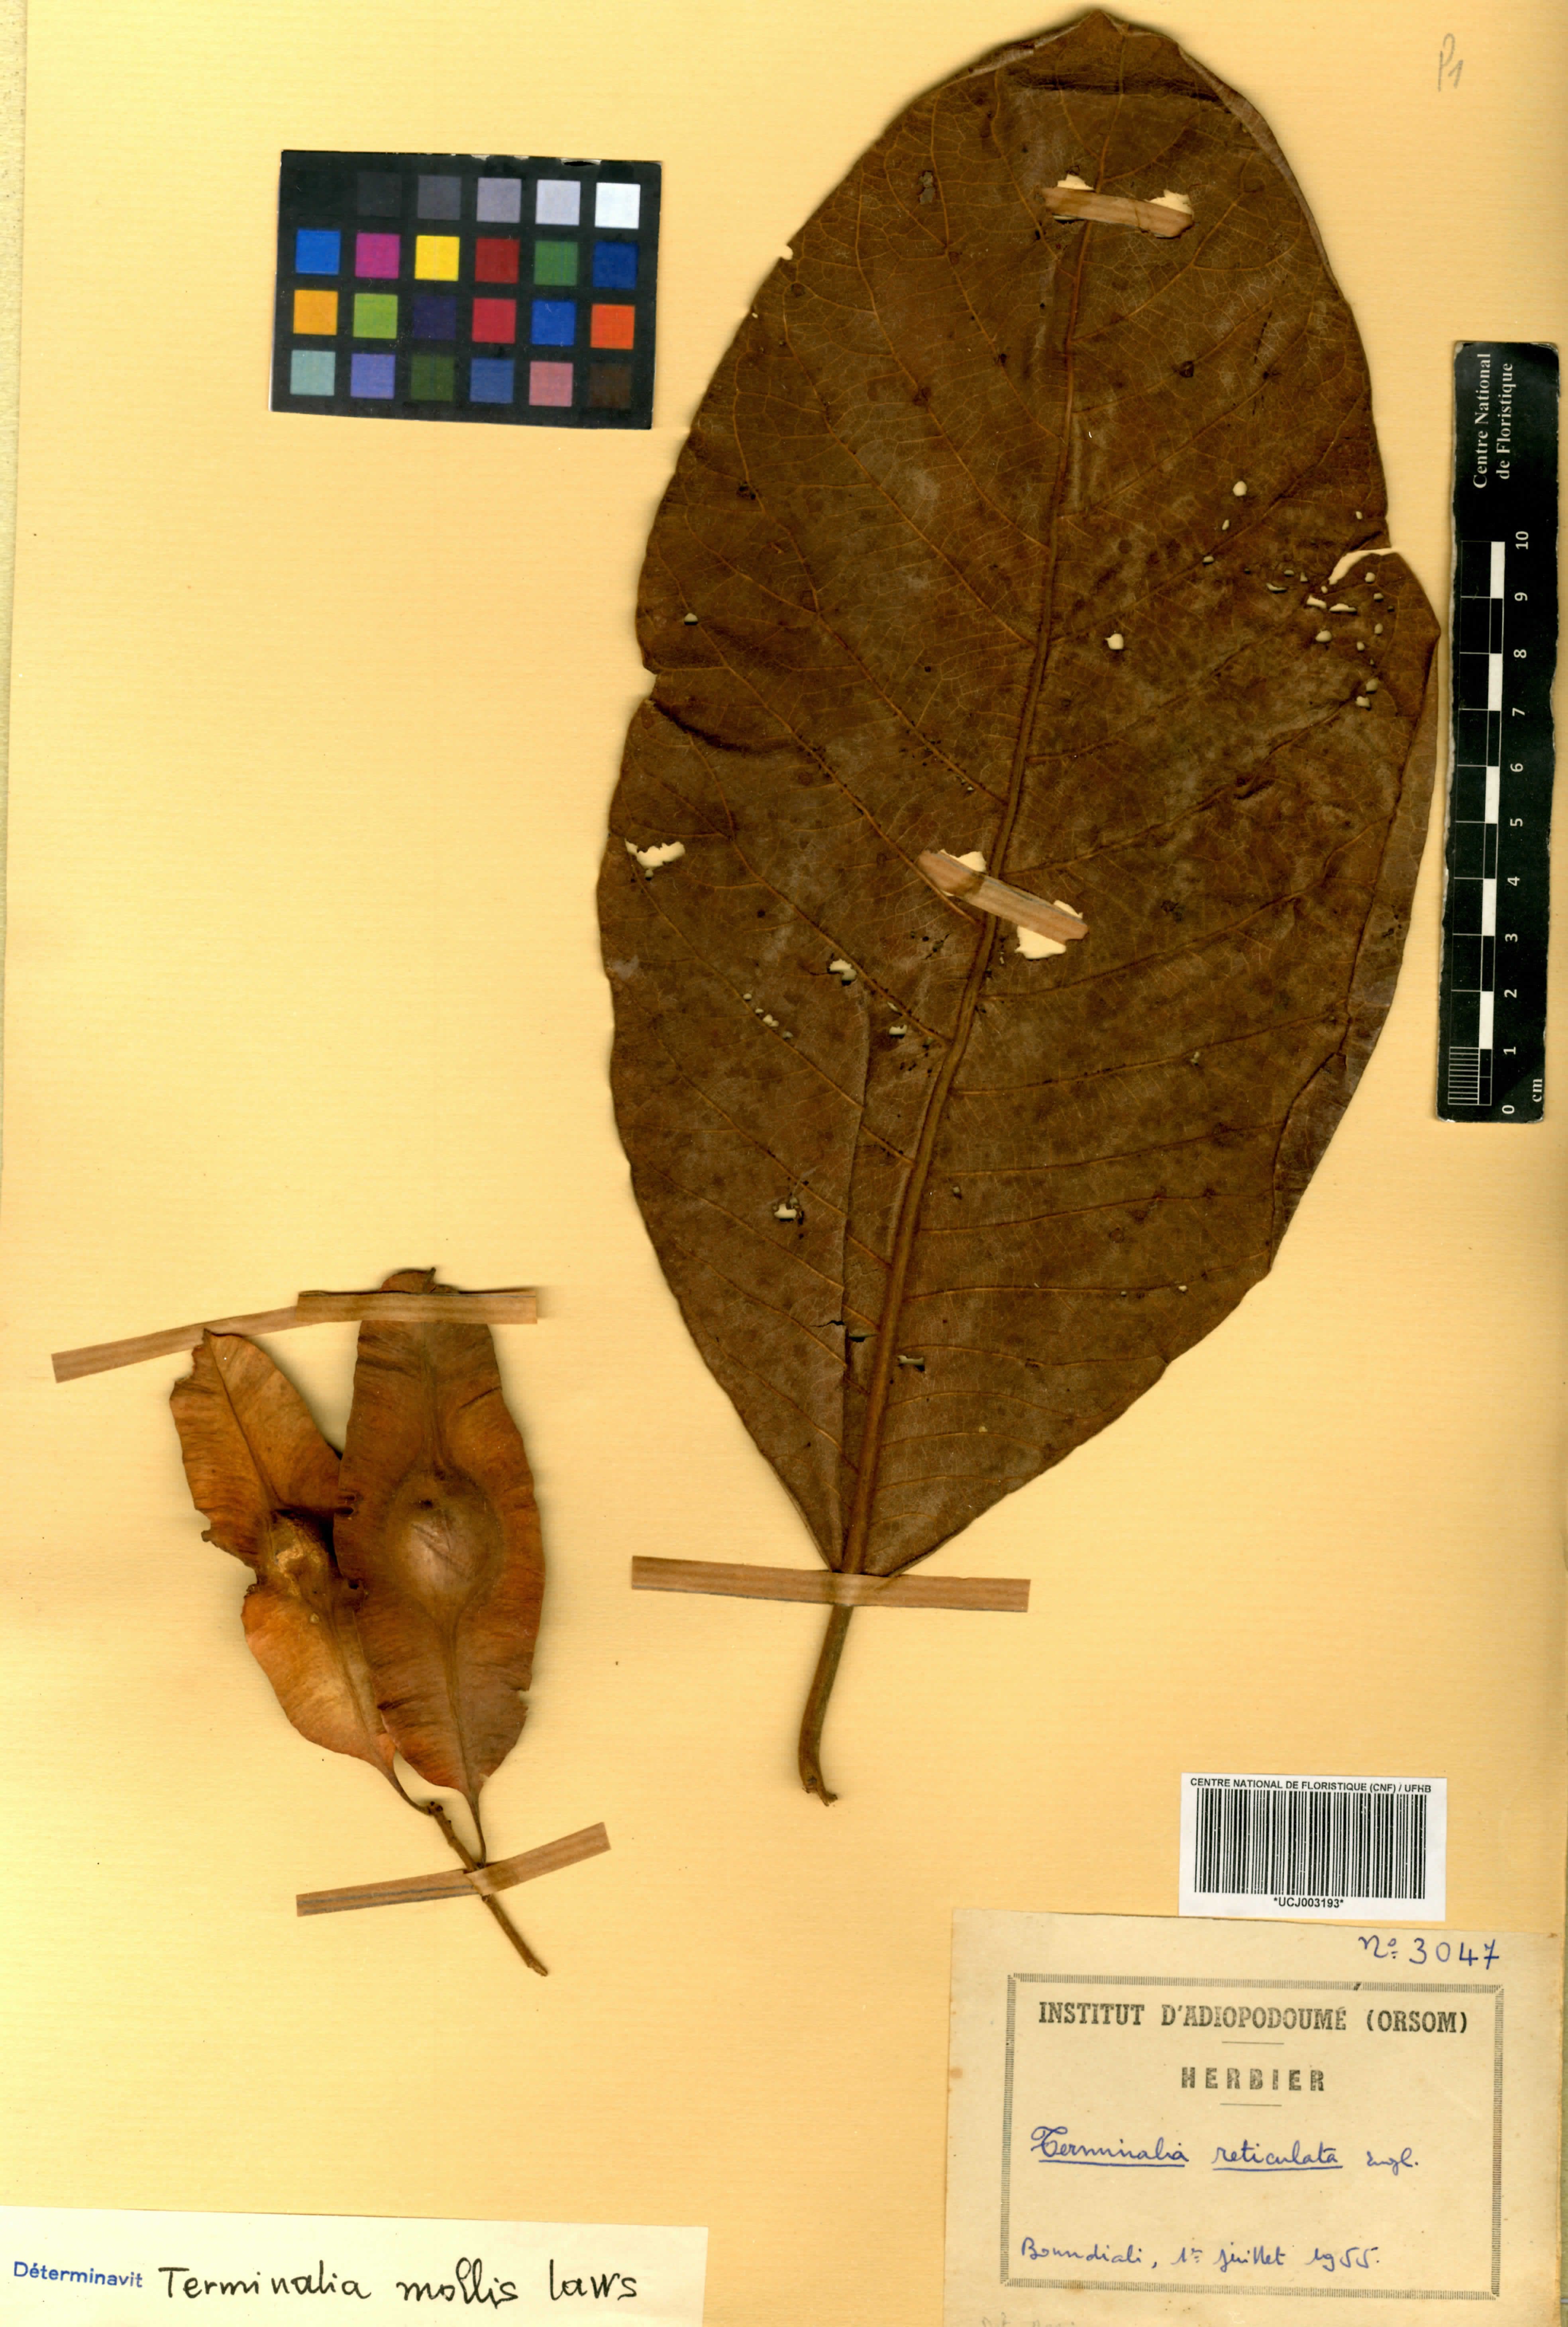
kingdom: Plantae
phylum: Tracheophyta
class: Magnoliopsida
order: Myrtales
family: Combretaceae
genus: Terminalia
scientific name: Terminalia mollis
